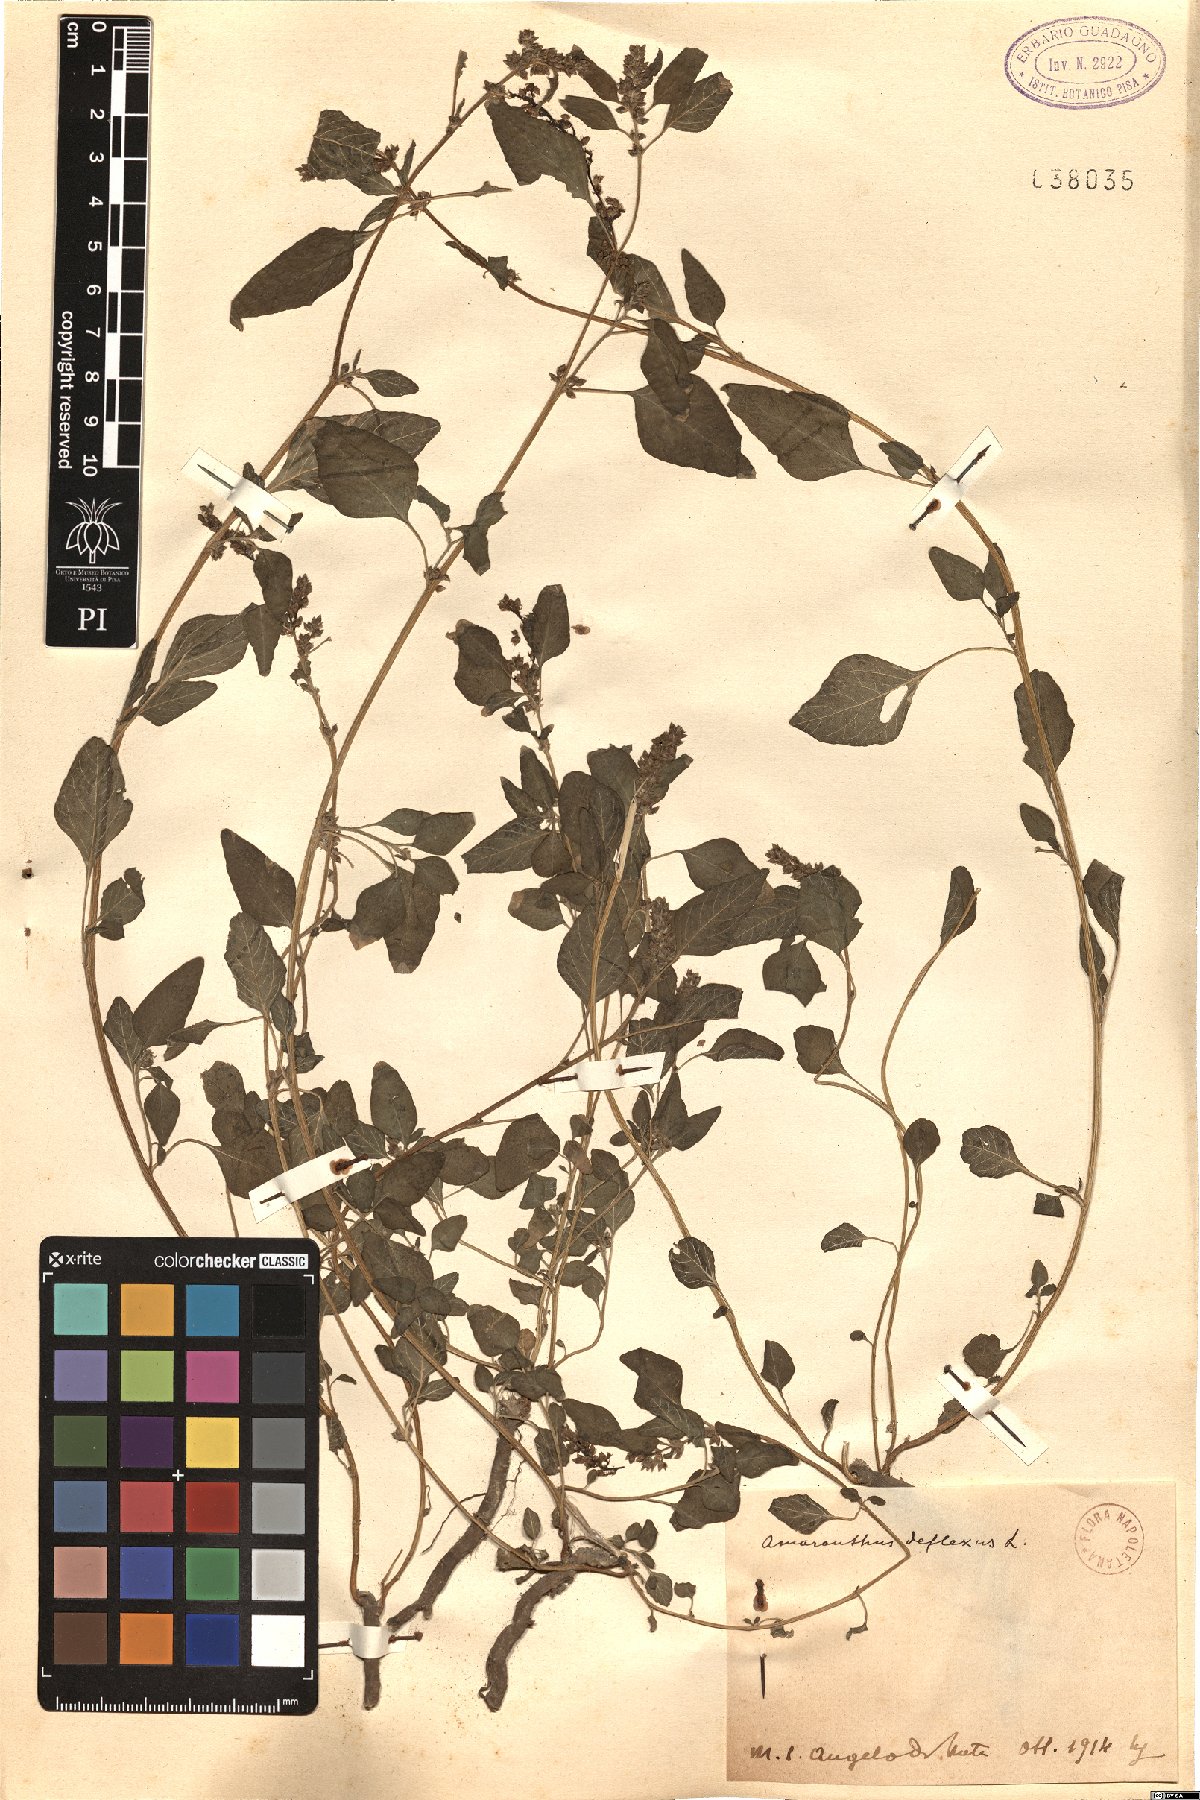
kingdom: Plantae
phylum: Tracheophyta
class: Magnoliopsida
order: Caryophyllales
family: Amaranthaceae
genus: Amaranthus
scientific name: Amaranthus deflexus
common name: Perennial pigweed
